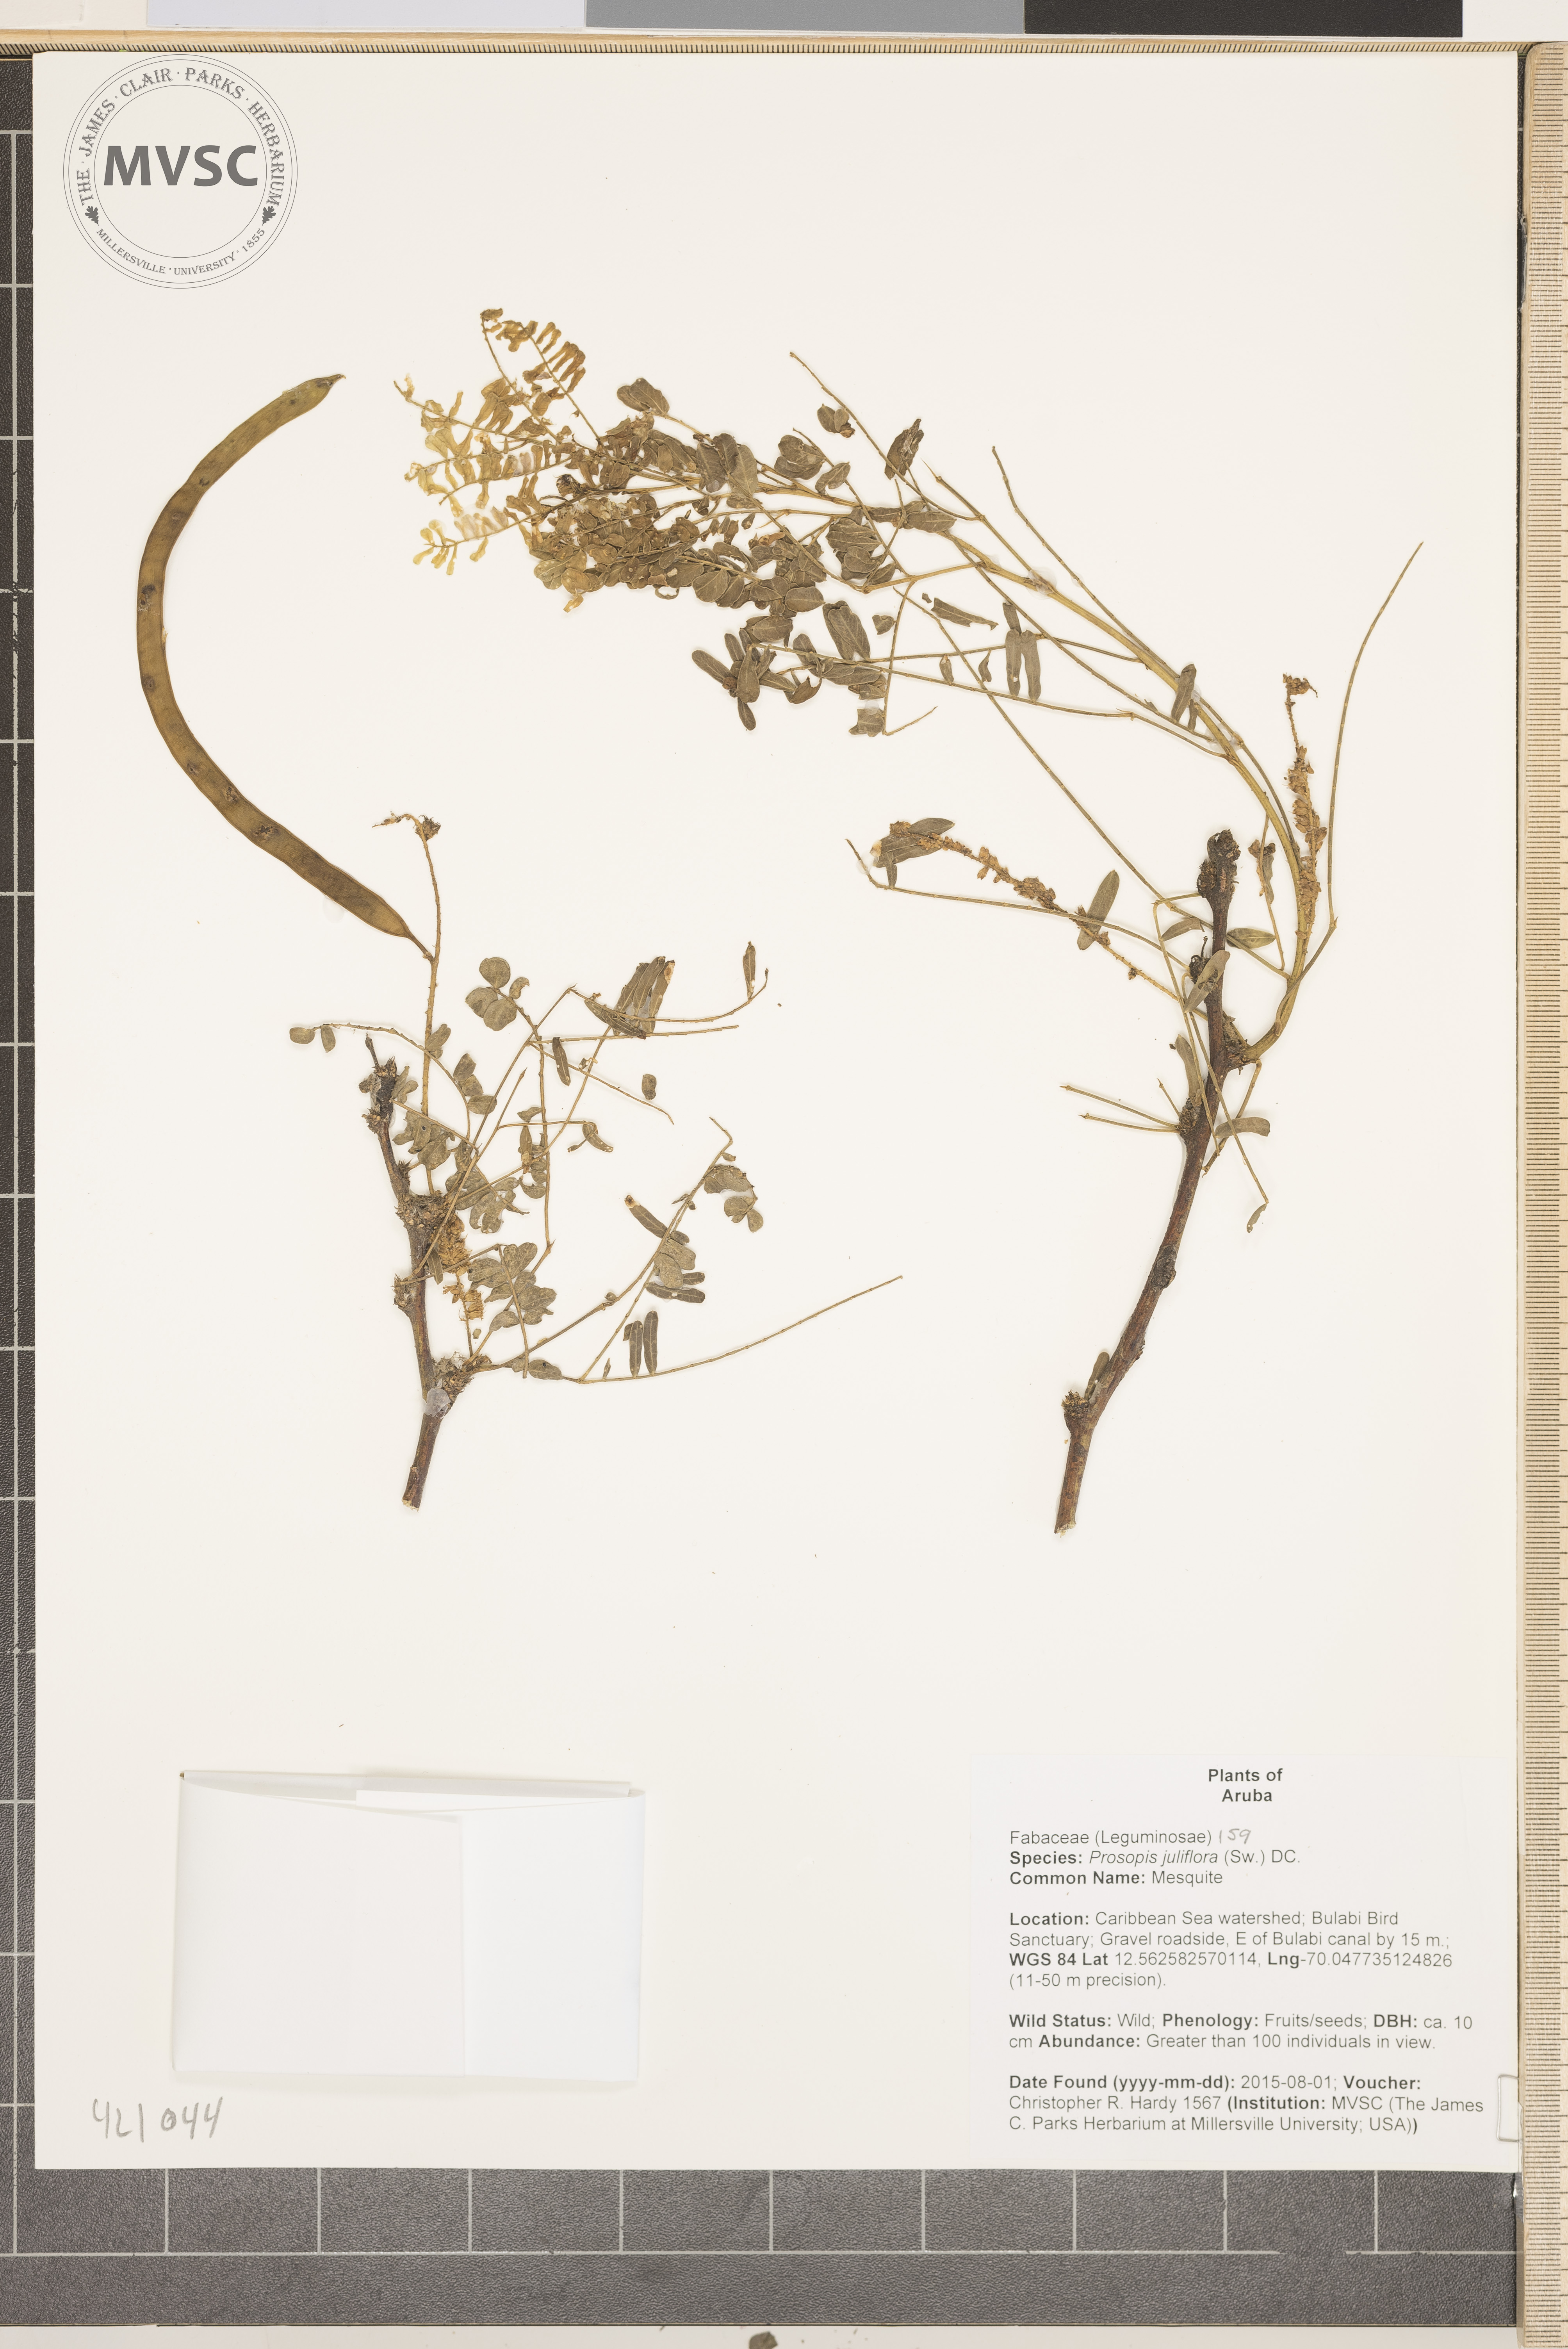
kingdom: Plantae
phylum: Tracheophyta
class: Magnoliopsida
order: Fabales
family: Fabaceae
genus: Prosopis
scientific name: Prosopis juliflora
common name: Mesquite
